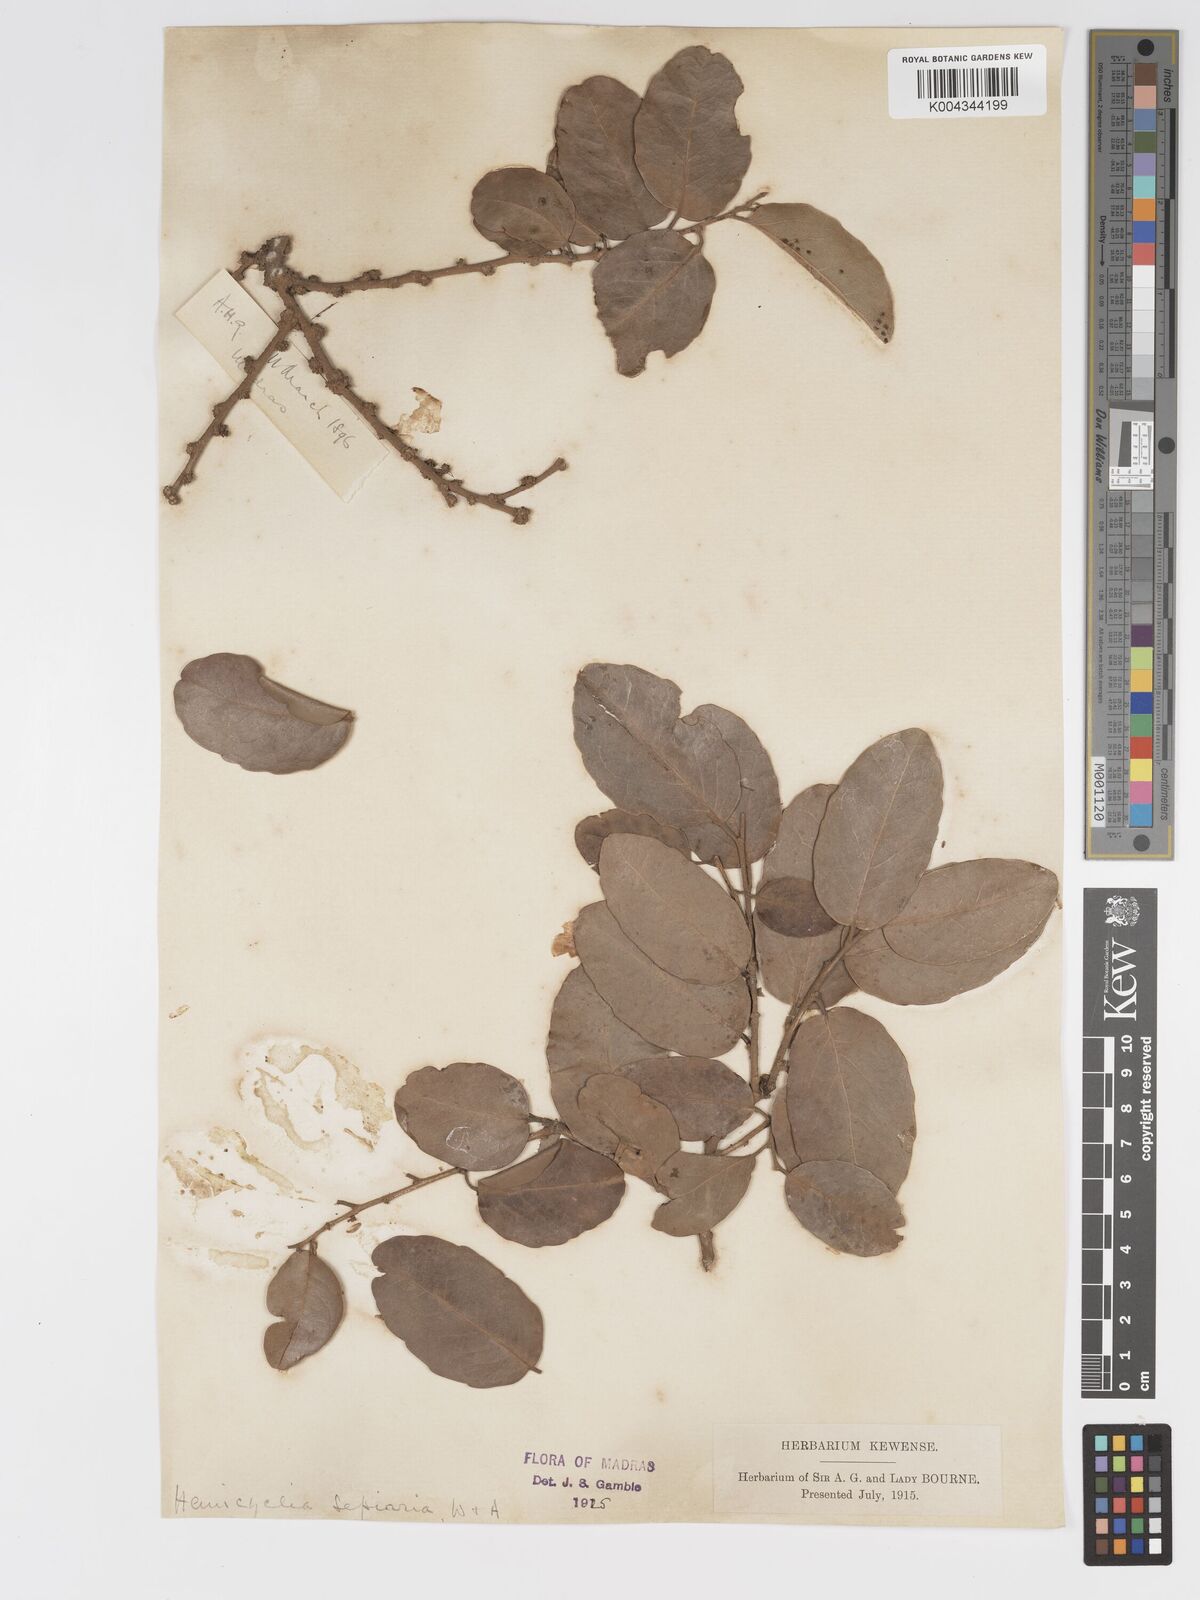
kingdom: Plantae
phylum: Tracheophyta
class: Magnoliopsida
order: Malpighiales
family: Putranjivaceae
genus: Drypetes
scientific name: Drypetes sepiaria
